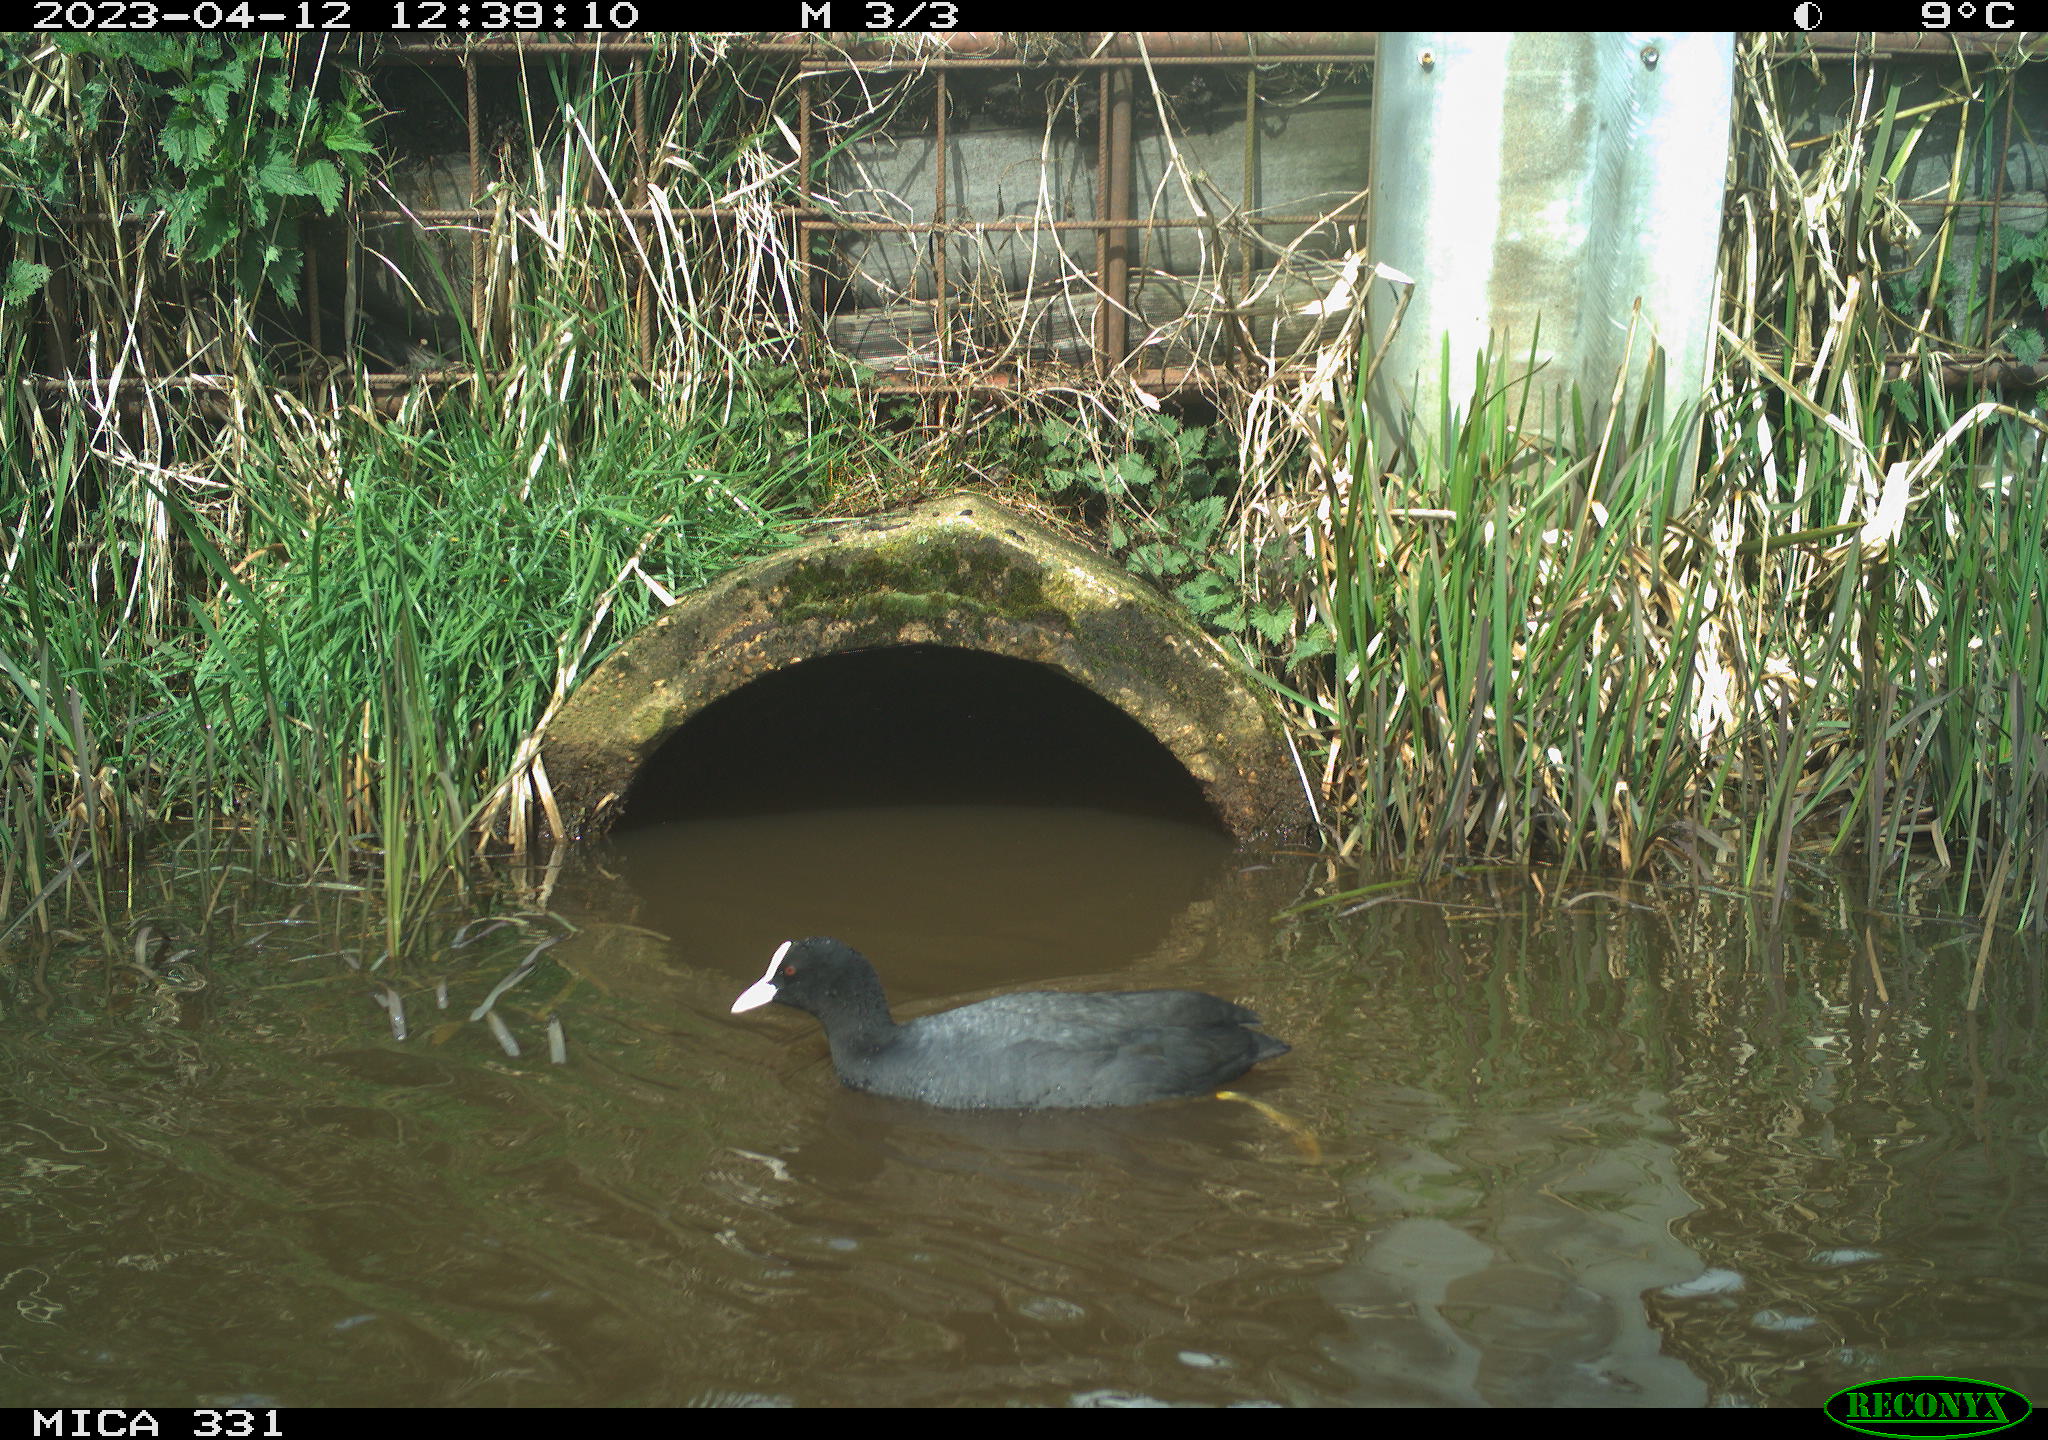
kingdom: Animalia
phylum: Chordata
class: Aves
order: Gruiformes
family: Rallidae
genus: Fulica
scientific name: Fulica atra
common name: Eurasian coot
